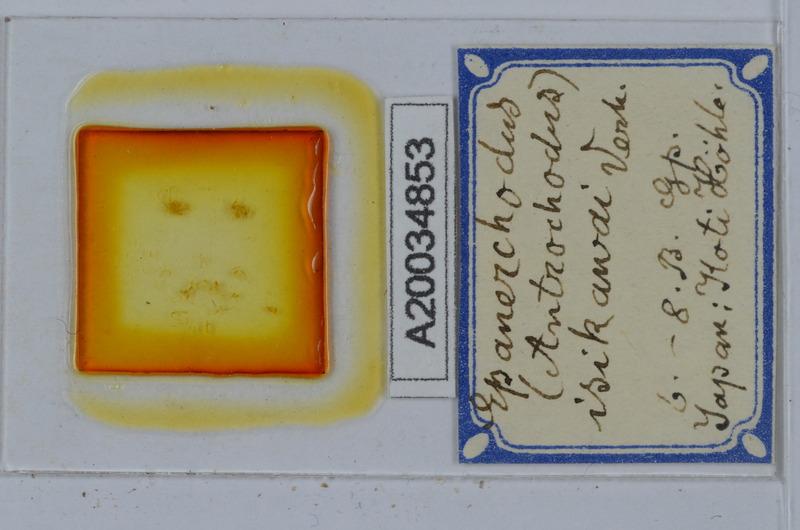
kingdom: Animalia
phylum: Arthropoda
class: Diplopoda
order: Polydesmida
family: Polydesmidae
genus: Antrochodus
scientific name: Antrochodus isikawai
